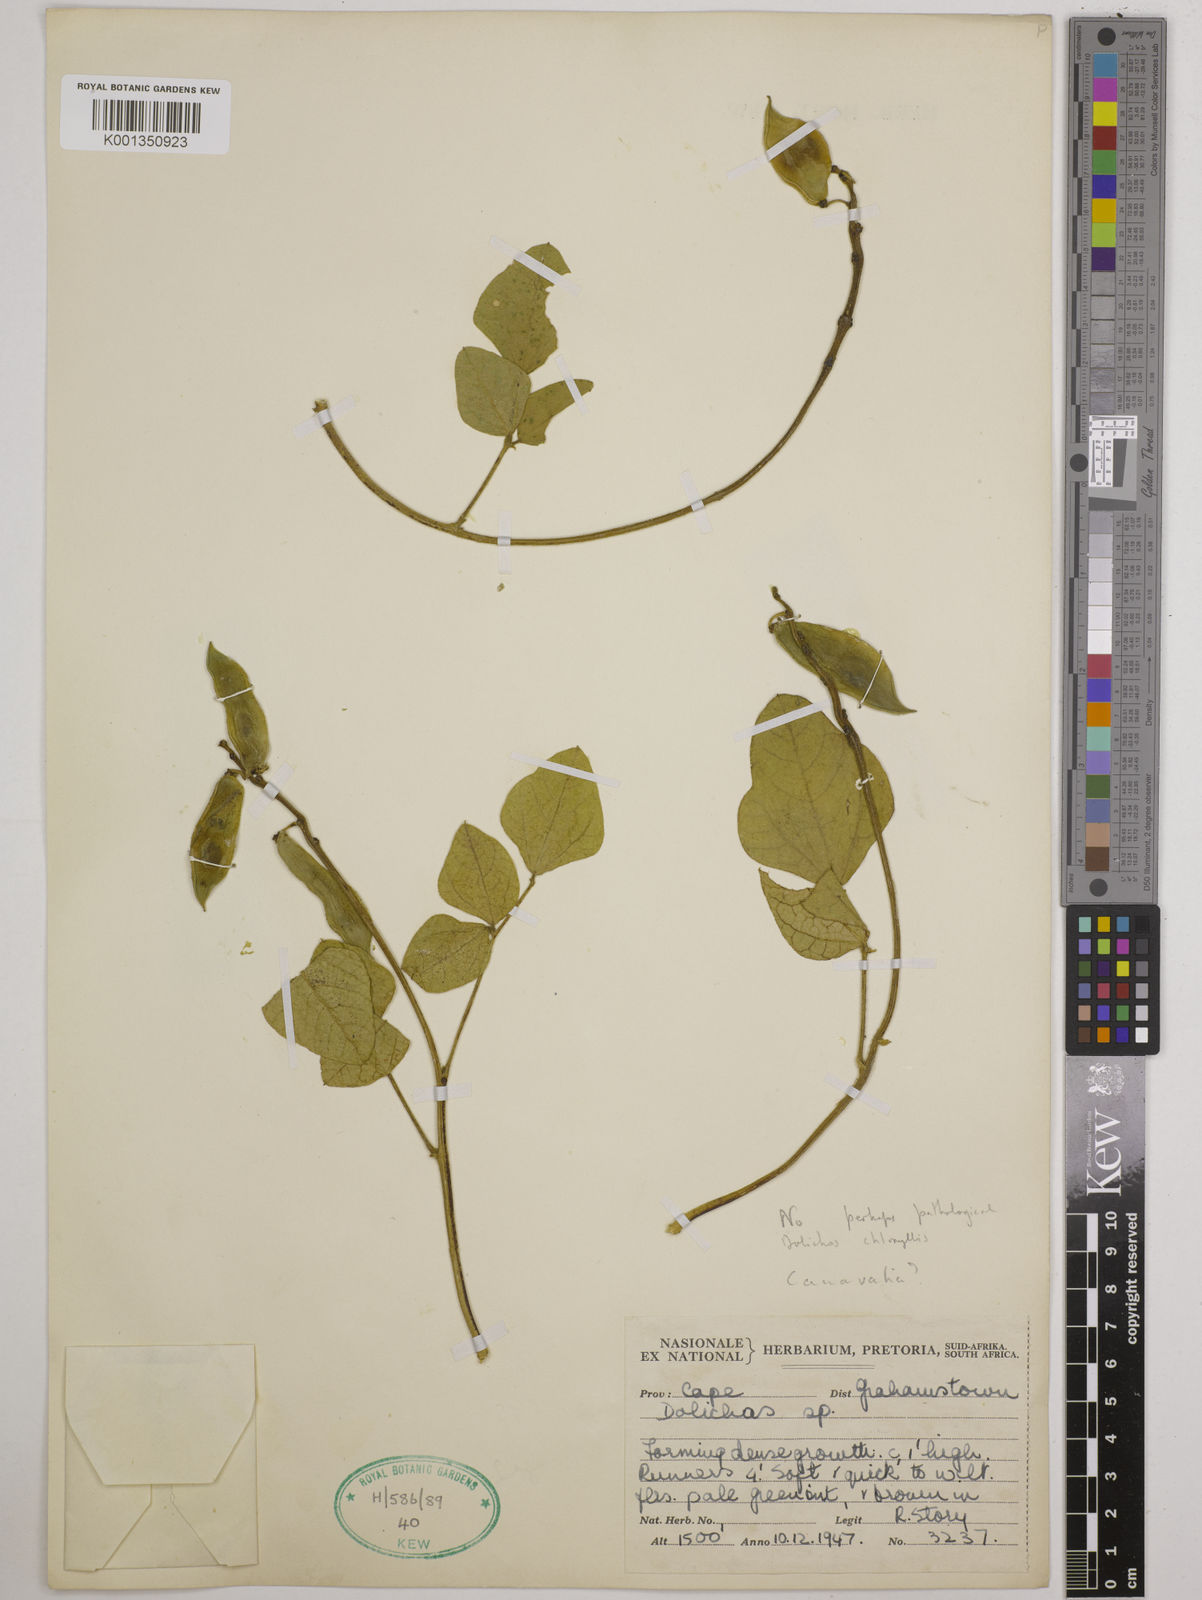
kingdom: Plantae
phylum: Tracheophyta
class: Magnoliopsida
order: Fabales
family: Fabaceae
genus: Dolichos
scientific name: Dolichos pratensis
